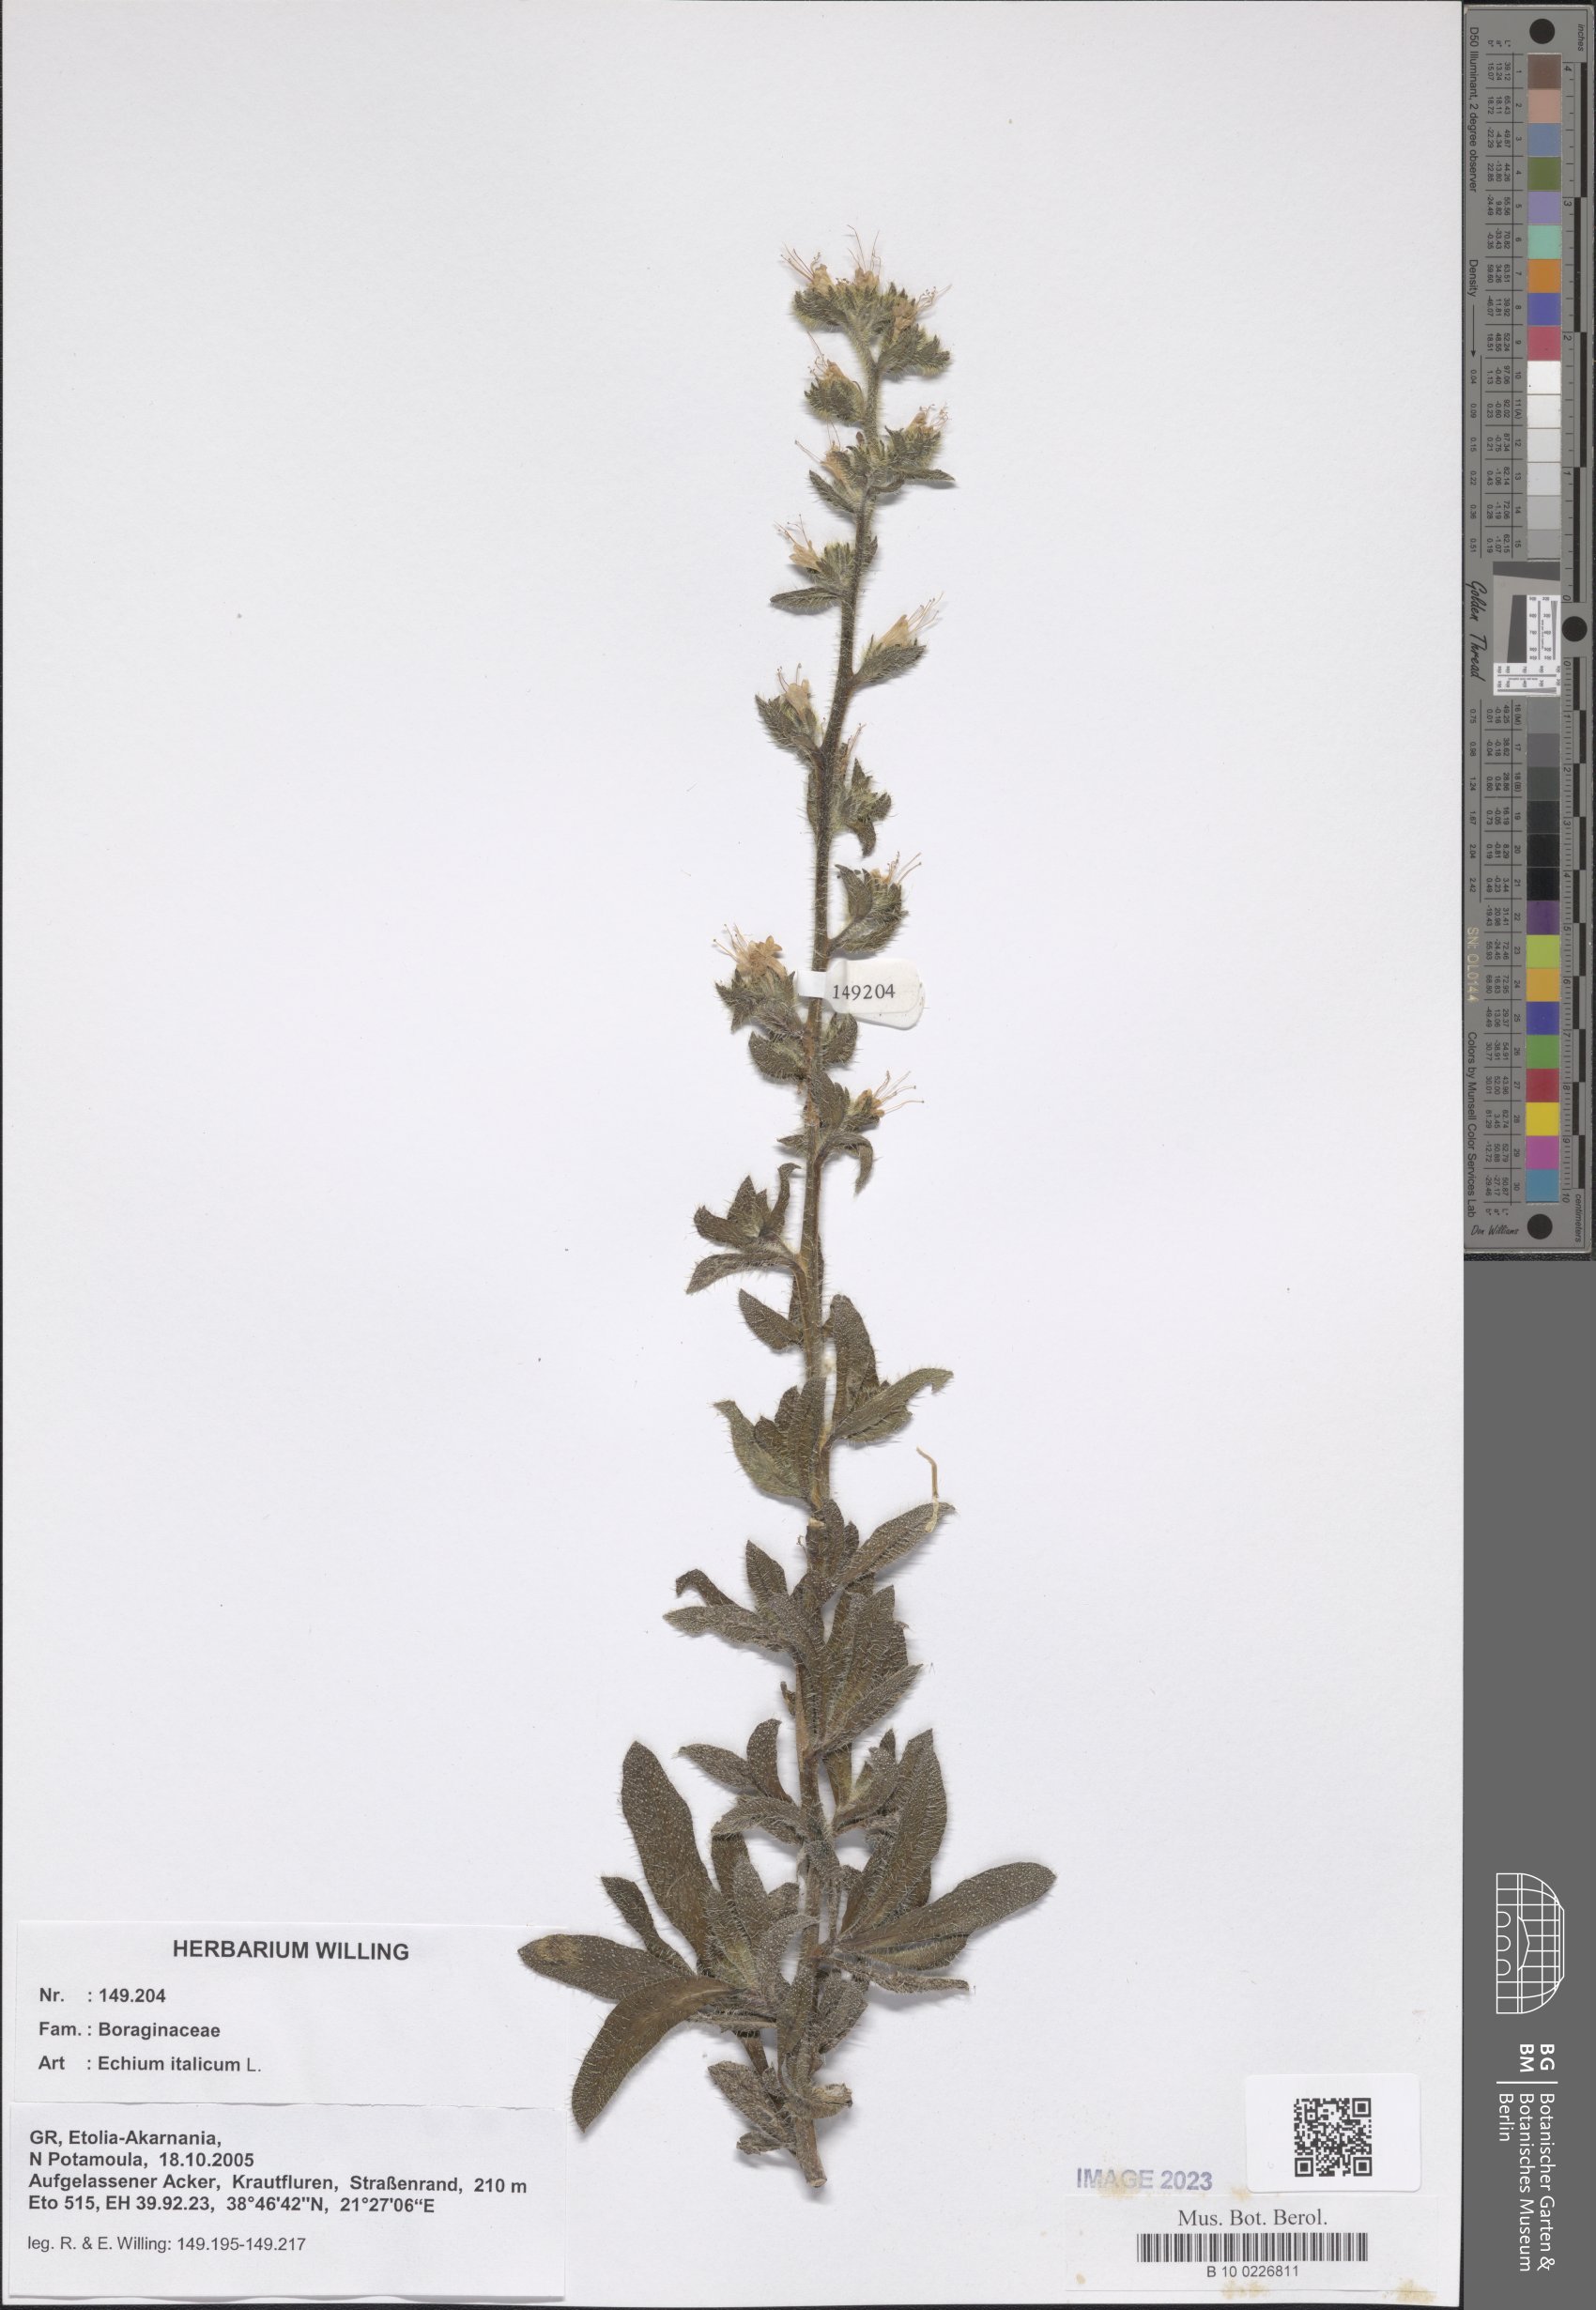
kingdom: Plantae
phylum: Tracheophyta
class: Magnoliopsida
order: Boraginales
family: Boraginaceae
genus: Echium
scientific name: Echium italicum
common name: Italian viper's bugloss
